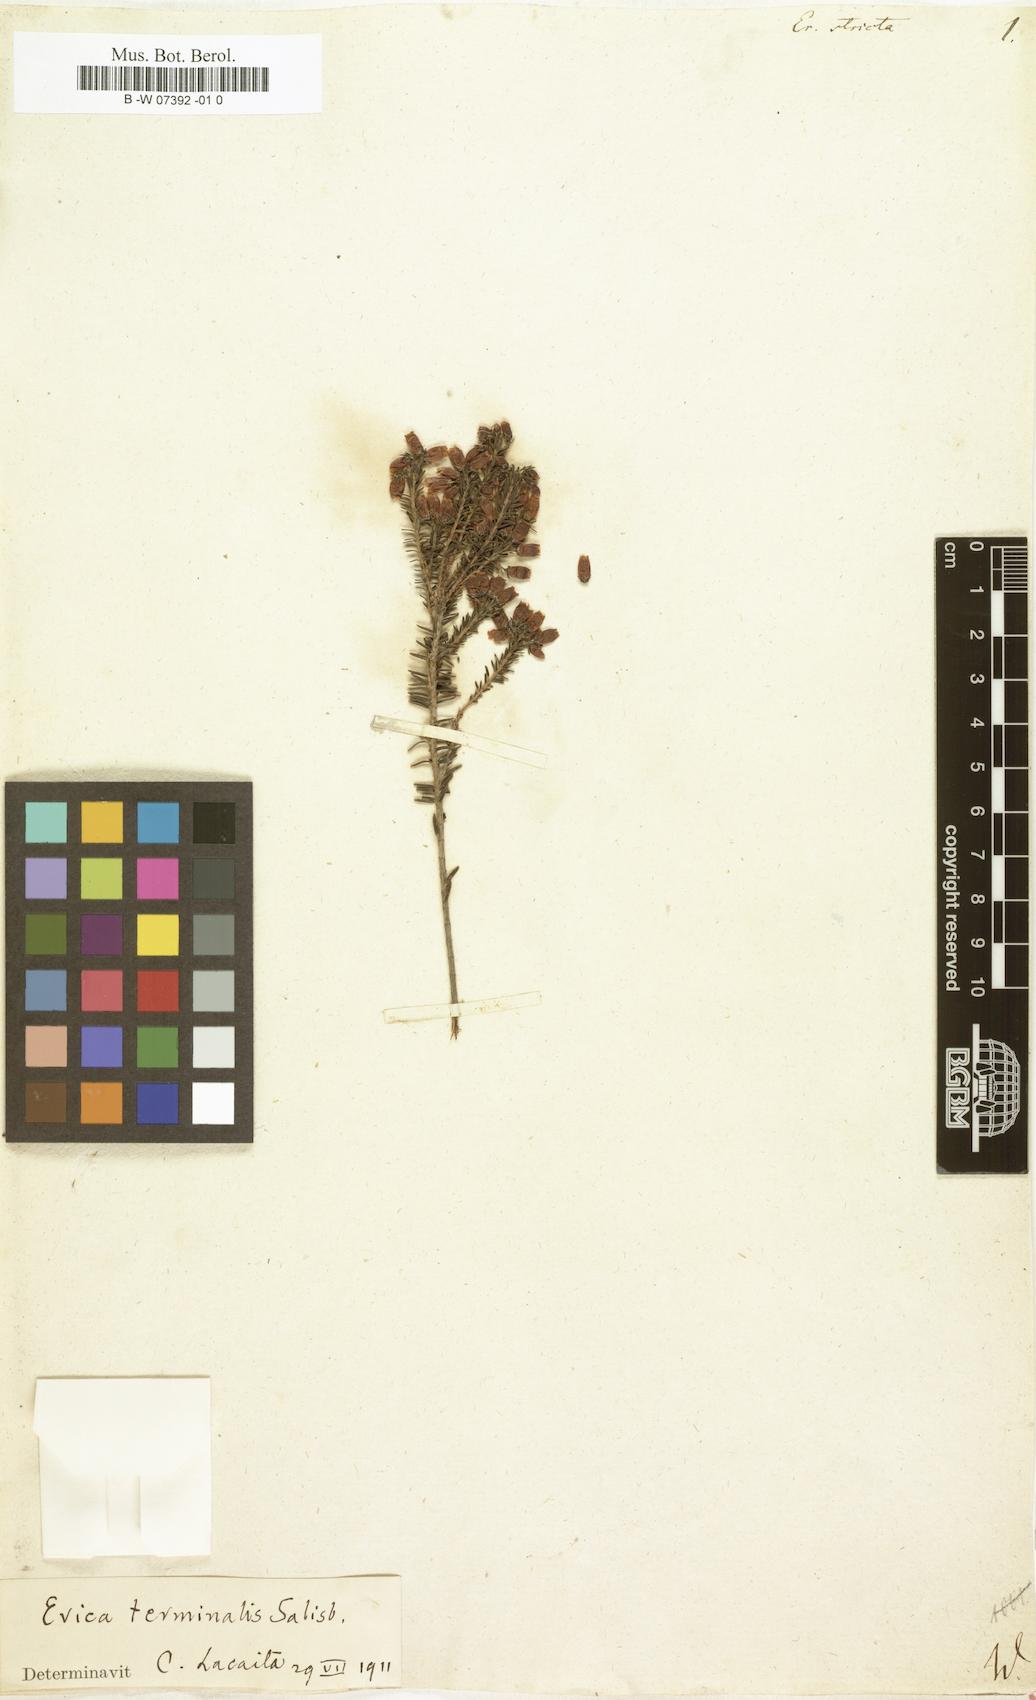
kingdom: Plantae
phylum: Tracheophyta
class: Magnoliopsida
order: Ericales
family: Ericaceae
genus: Erica
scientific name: Erica terminalis
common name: Corsican heath
